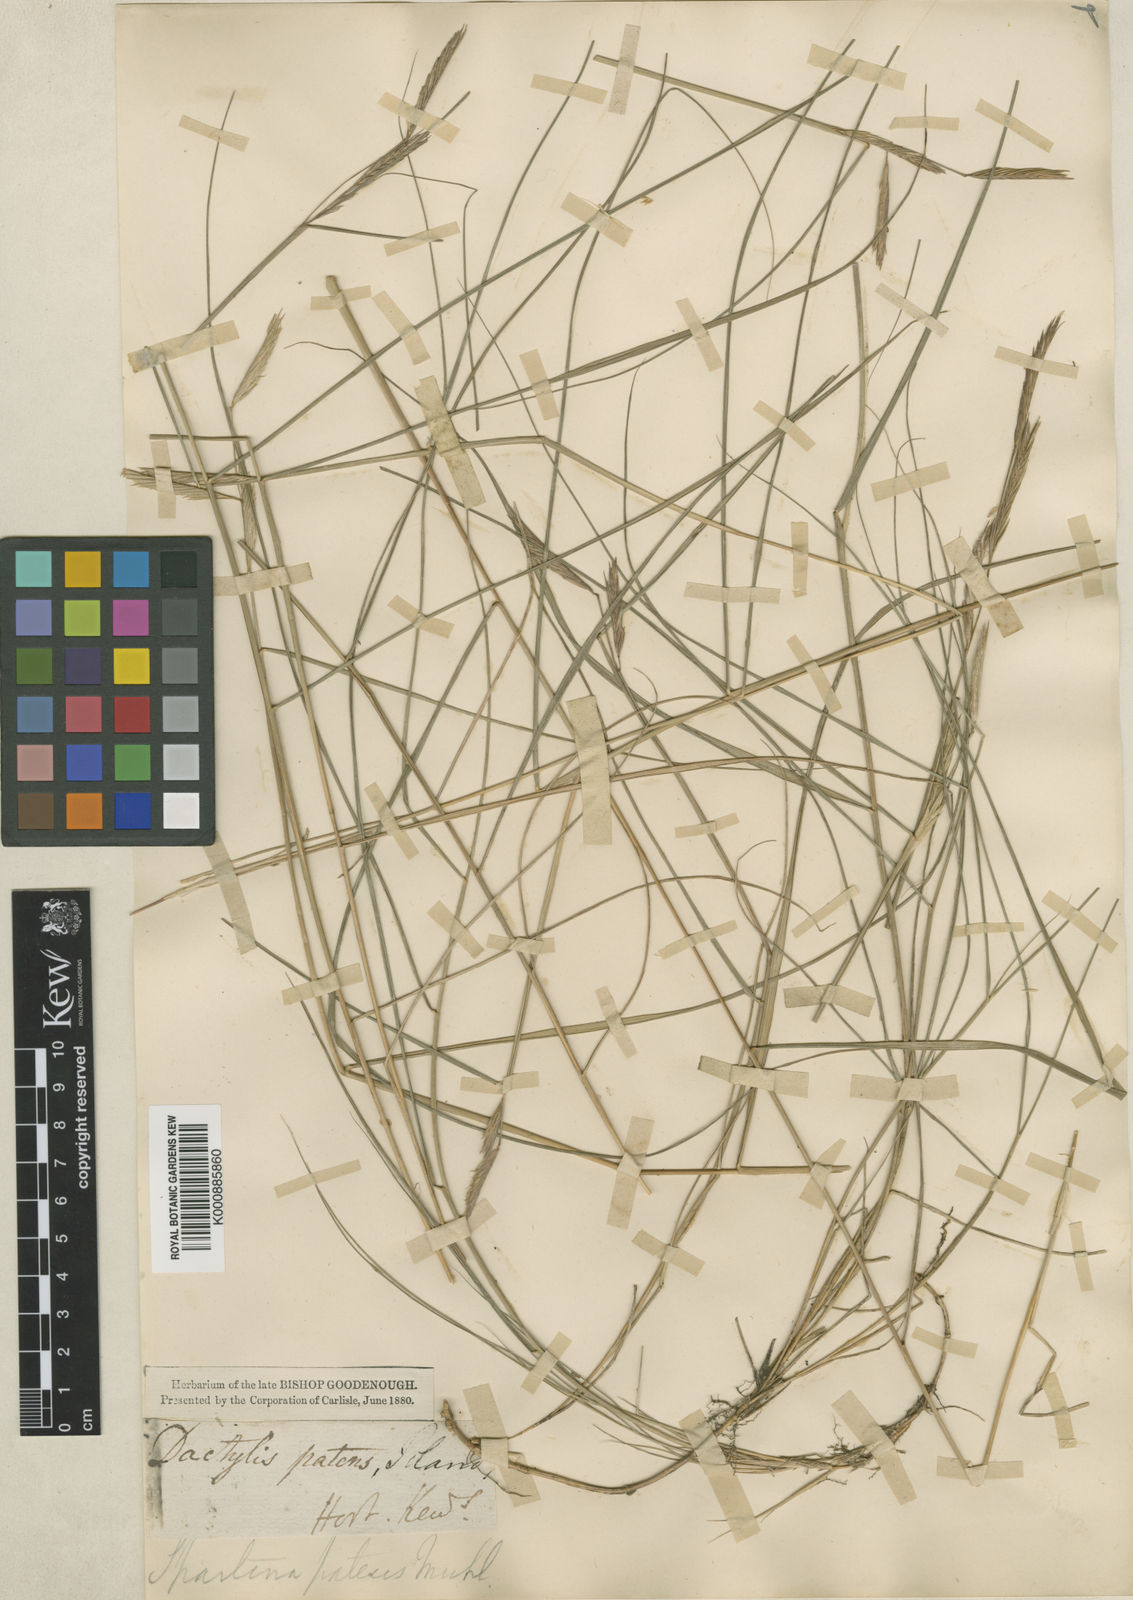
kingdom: Plantae
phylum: Tracheophyta
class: Liliopsida
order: Poales
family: Poaceae
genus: Sporobolus
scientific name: Sporobolus pumilus
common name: Highwater grass
